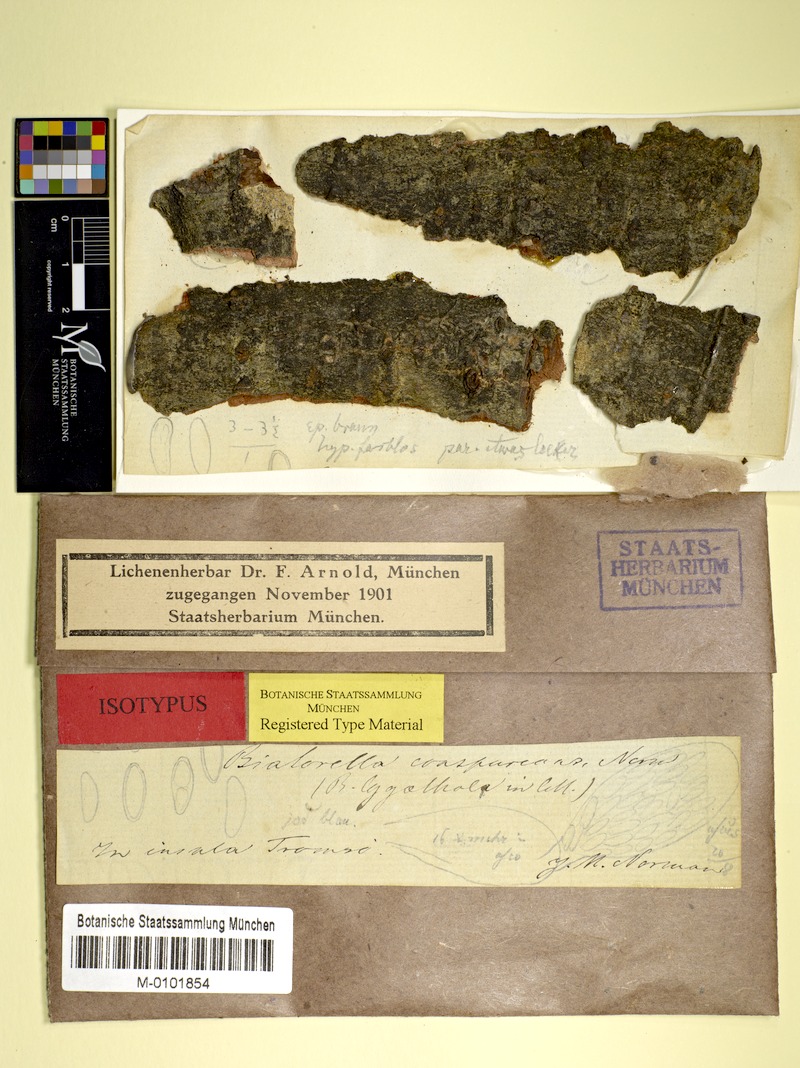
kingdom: Fungi
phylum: Ascomycota
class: Lecanoromycetes
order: Lecanorales
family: Biatorellaceae
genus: Biatorella
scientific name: Biatorella conspurcans
